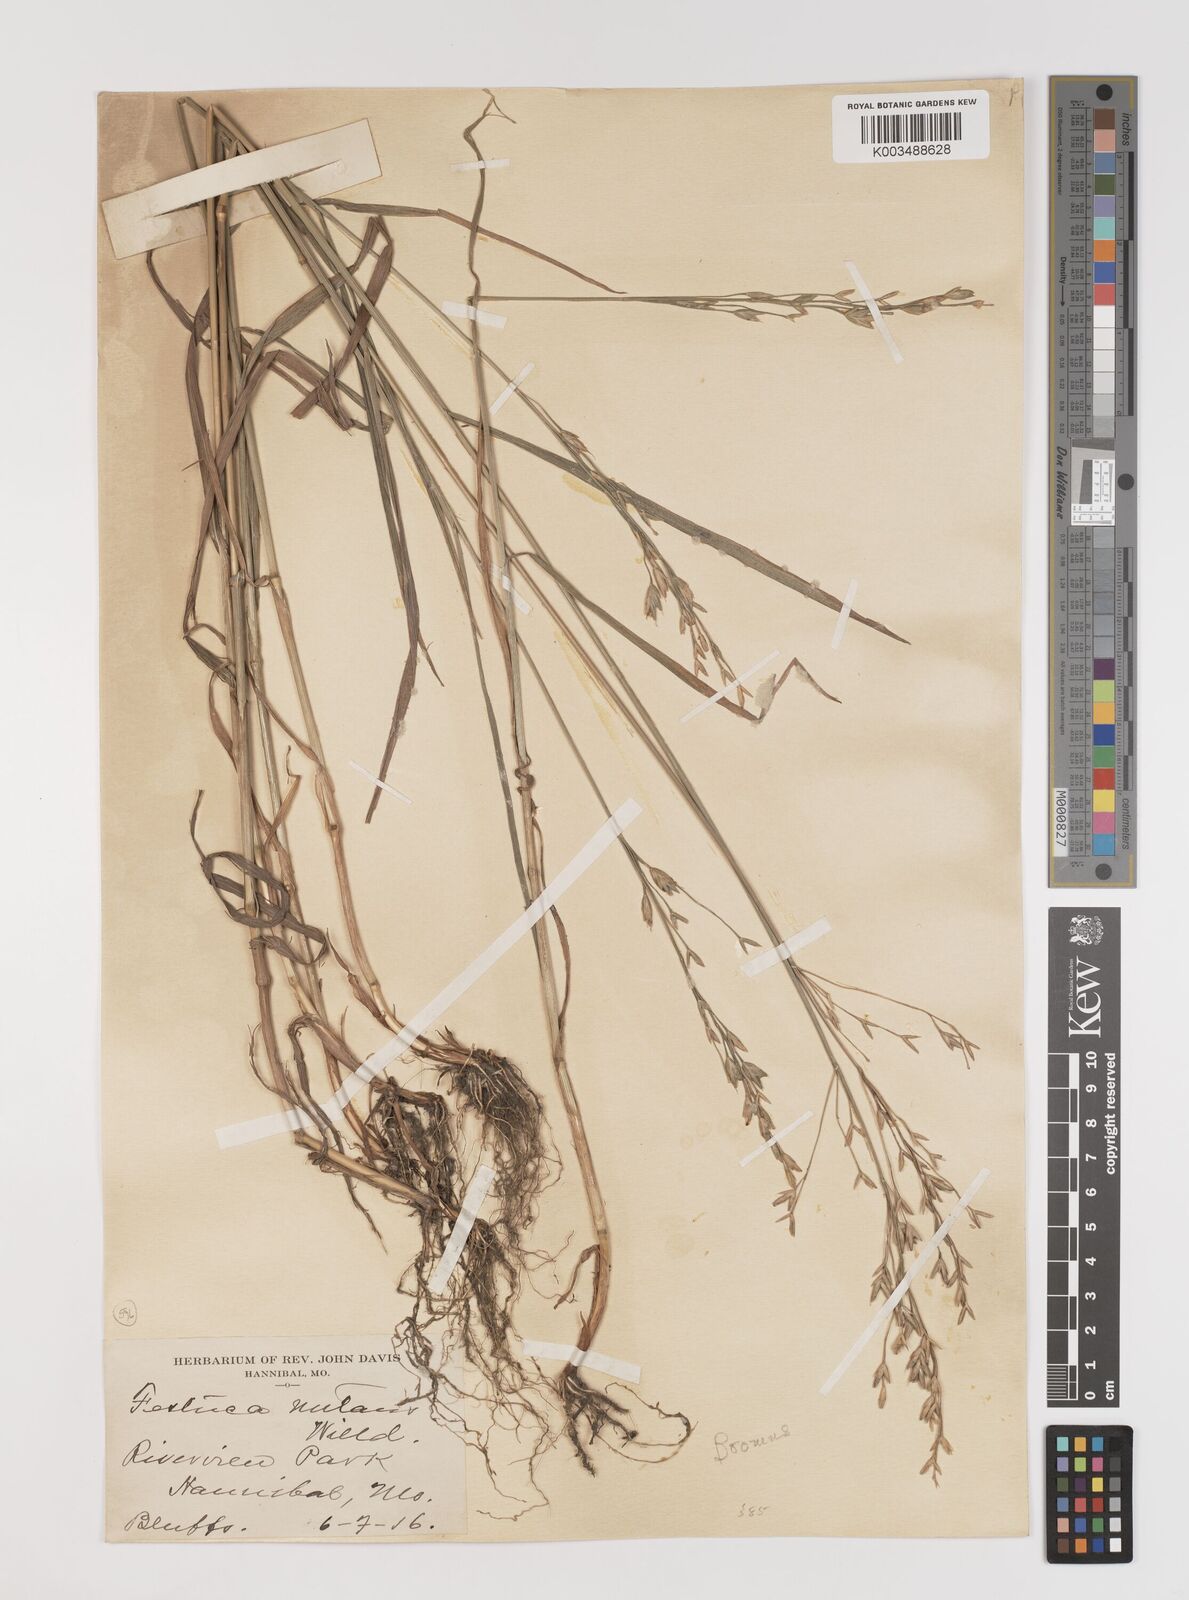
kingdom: Plantae
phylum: Tracheophyta
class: Liliopsida
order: Poales
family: Poaceae
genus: Bromus
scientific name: Bromus secalinus
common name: Rye brome
